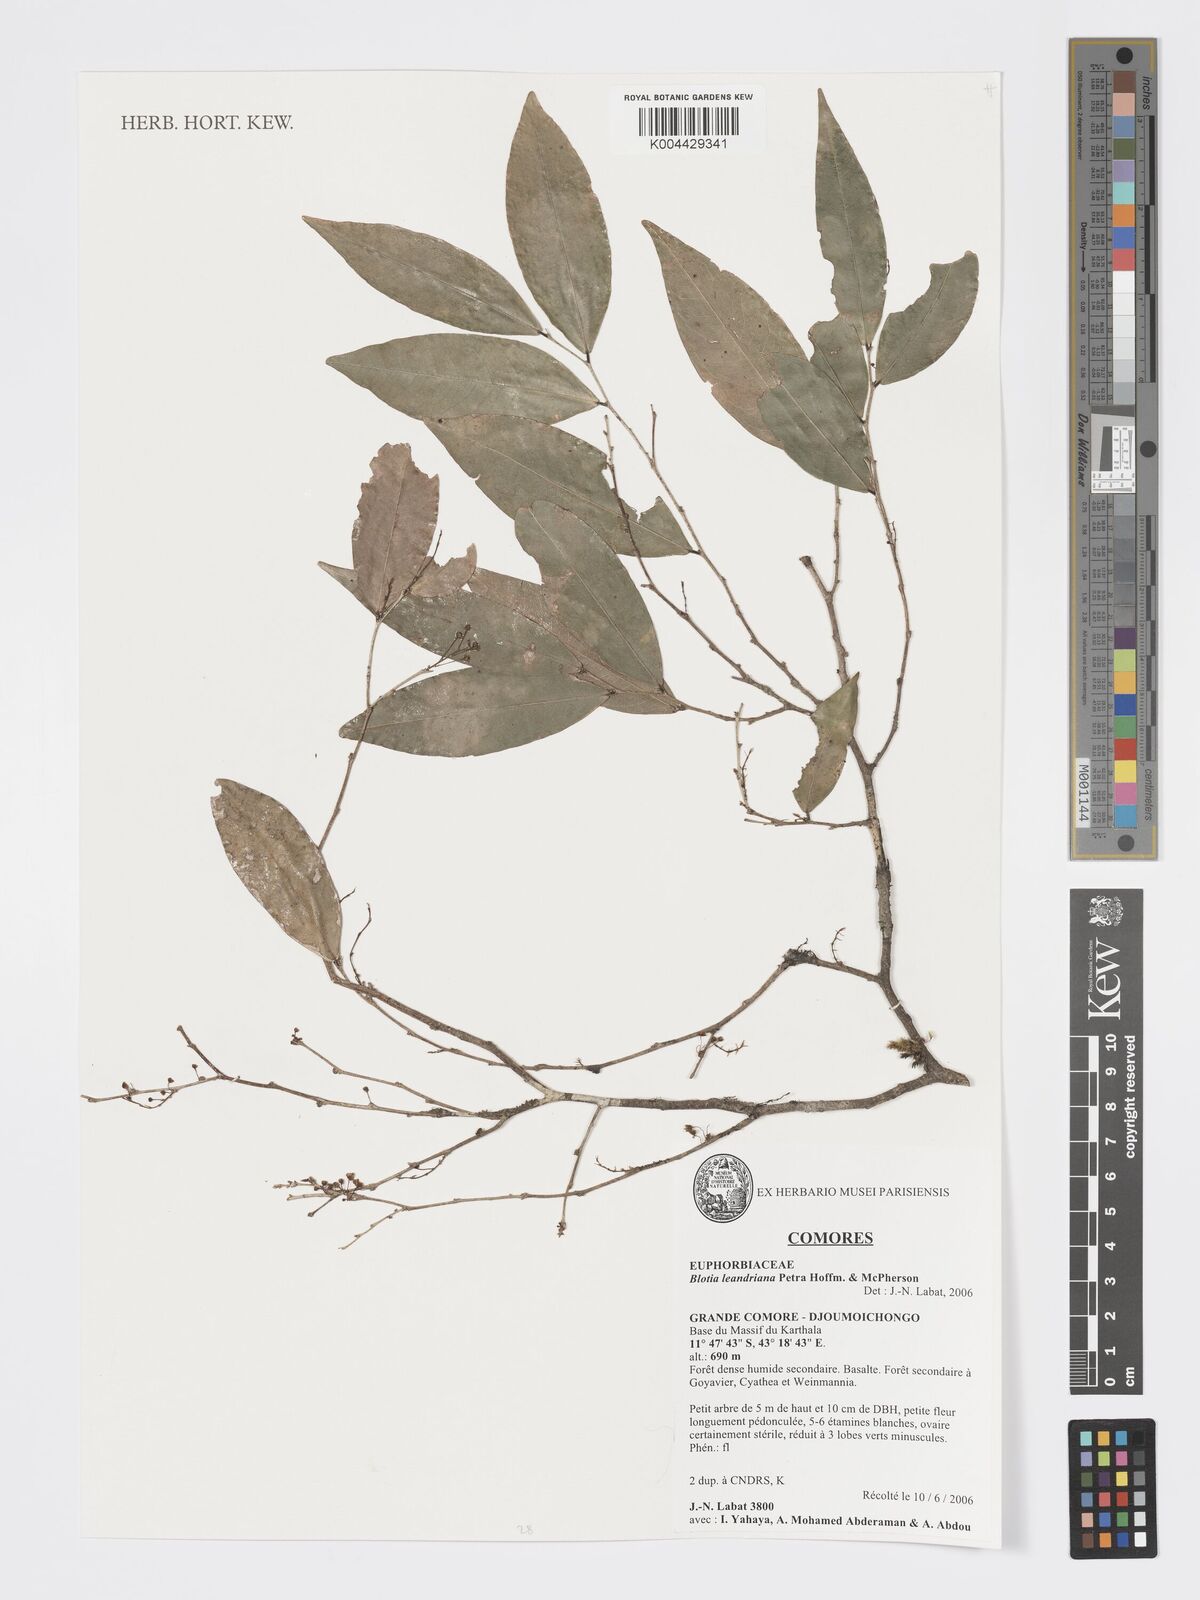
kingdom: Plantae
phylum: Tracheophyta
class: Magnoliopsida
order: Malpighiales
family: Phyllanthaceae
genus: Wielandia
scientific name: Wielandia leandriana
